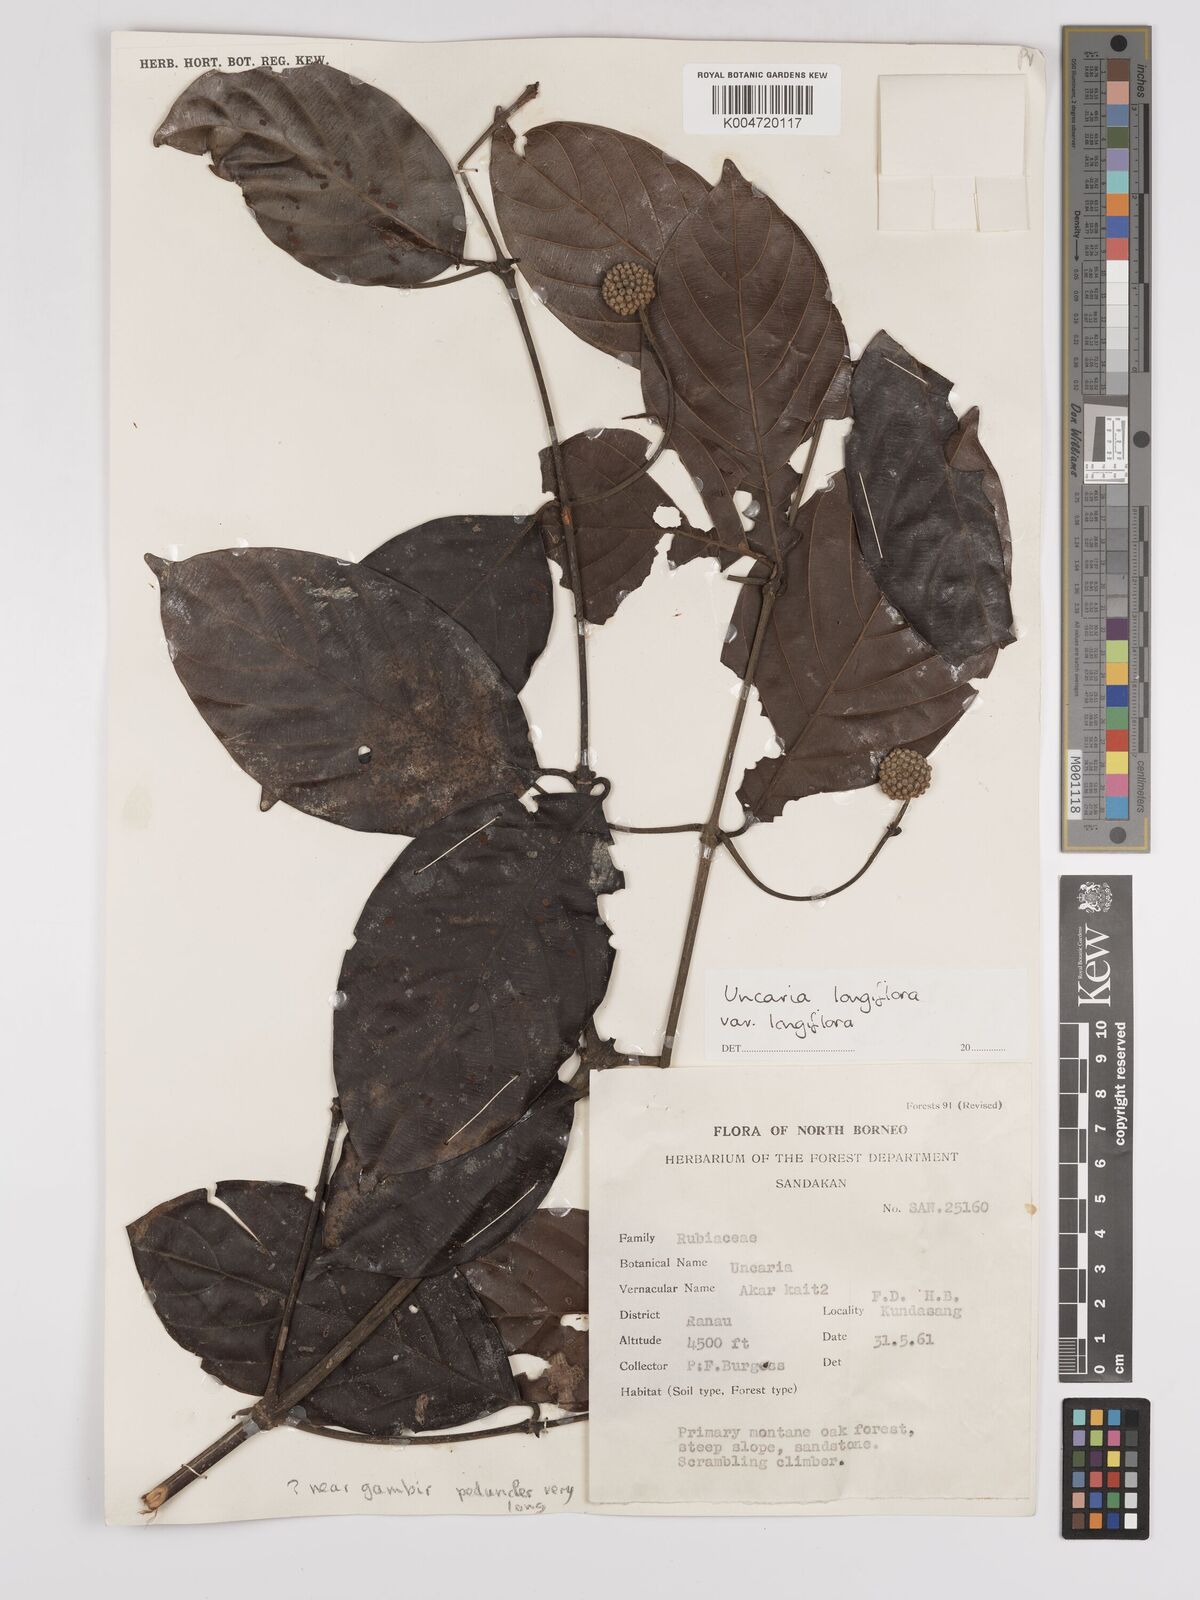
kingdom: Plantae
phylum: Tracheophyta
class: Magnoliopsida
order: Gentianales
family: Rubiaceae
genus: Uncaria
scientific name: Uncaria
